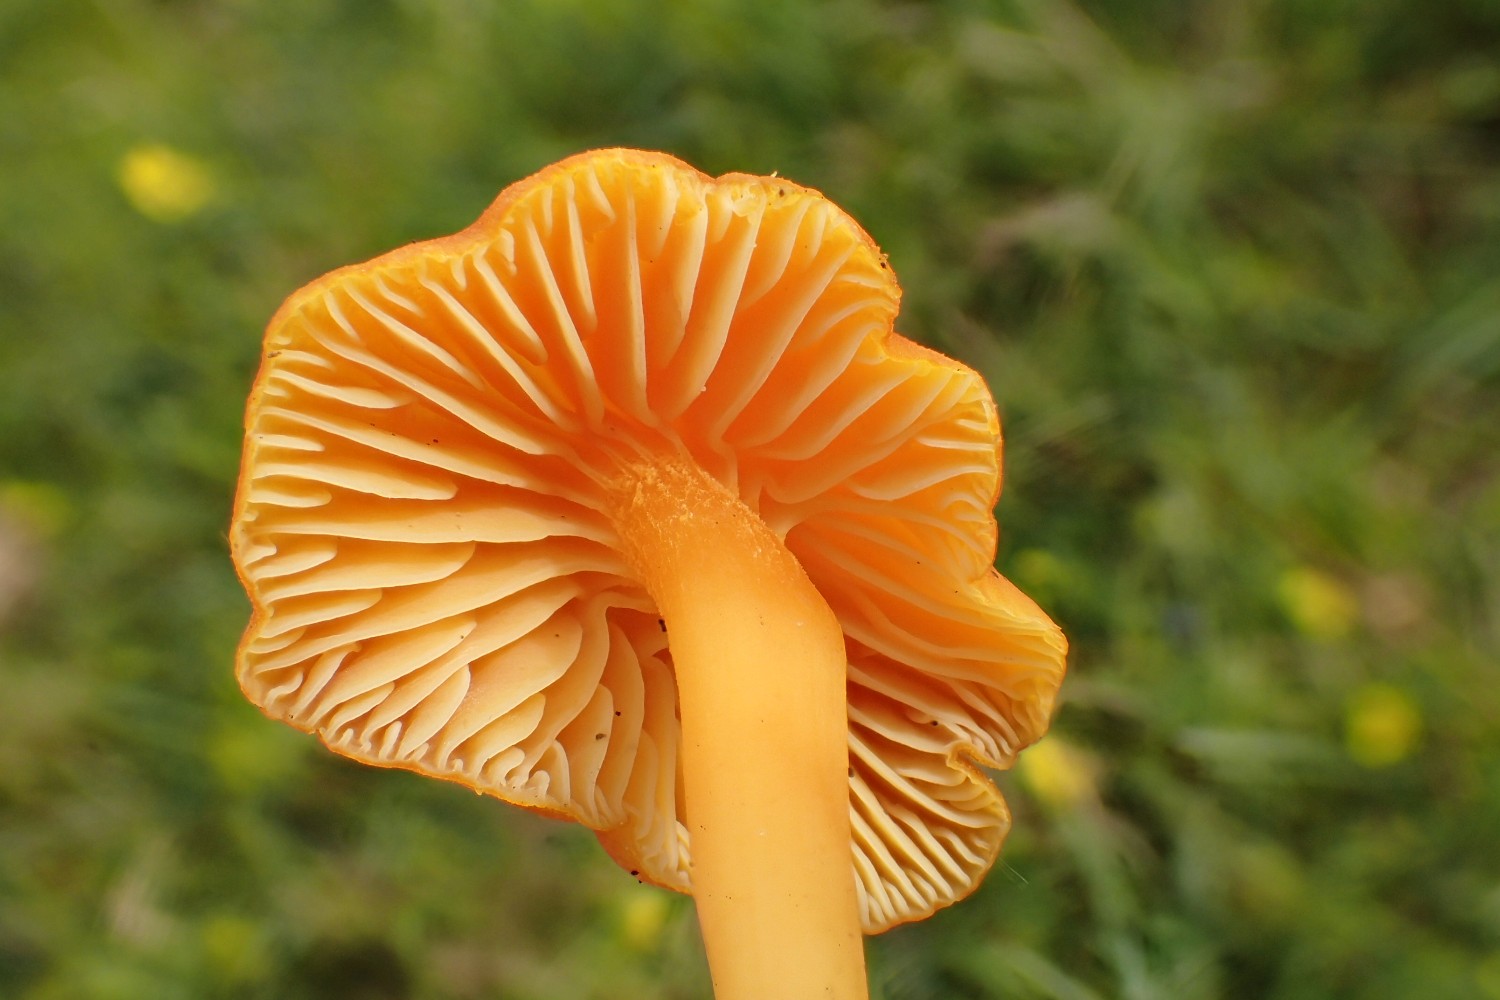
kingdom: Fungi
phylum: Basidiomycota
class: Agaricomycetes
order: Agaricales
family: Hygrophoraceae
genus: Hygrocybe
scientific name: Hygrocybe reidii
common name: honning-vokshat
